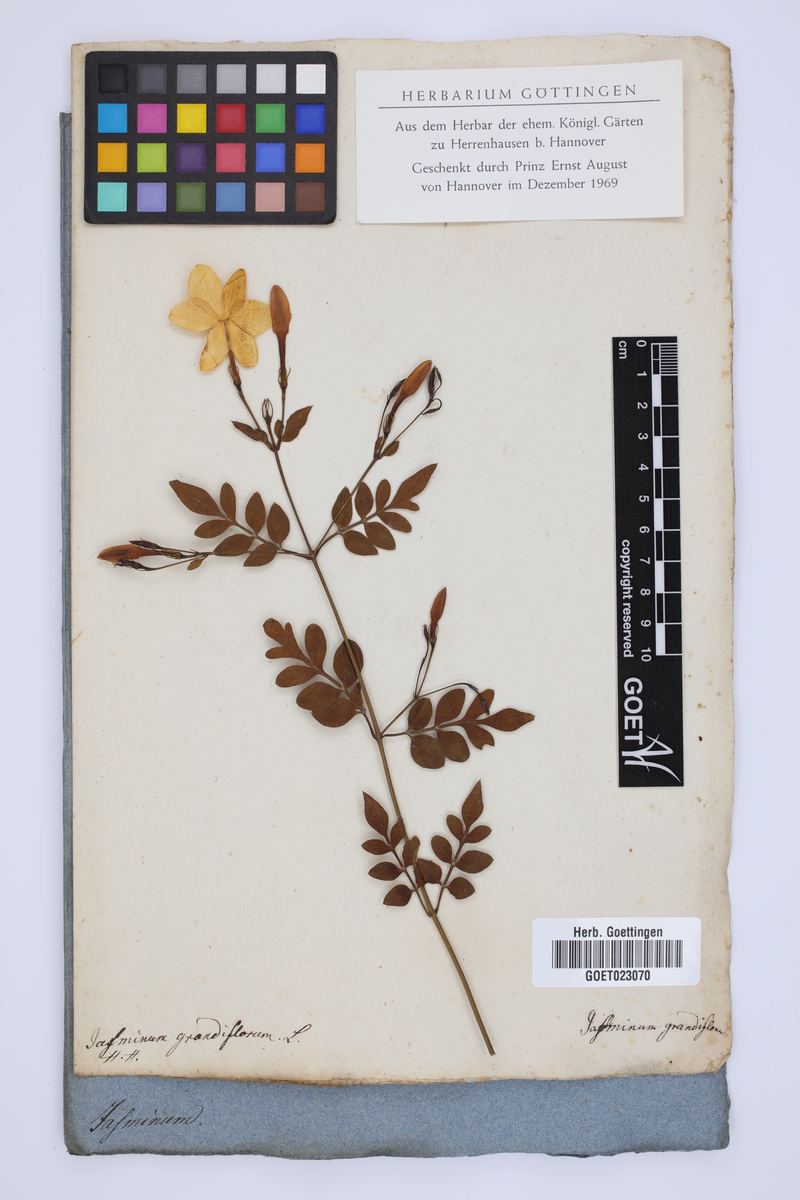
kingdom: Plantae
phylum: Tracheophyta
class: Magnoliopsida
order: Lamiales
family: Oleaceae
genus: Jasminum
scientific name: Jasminum grandiflorum
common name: Catalonian jasmine
